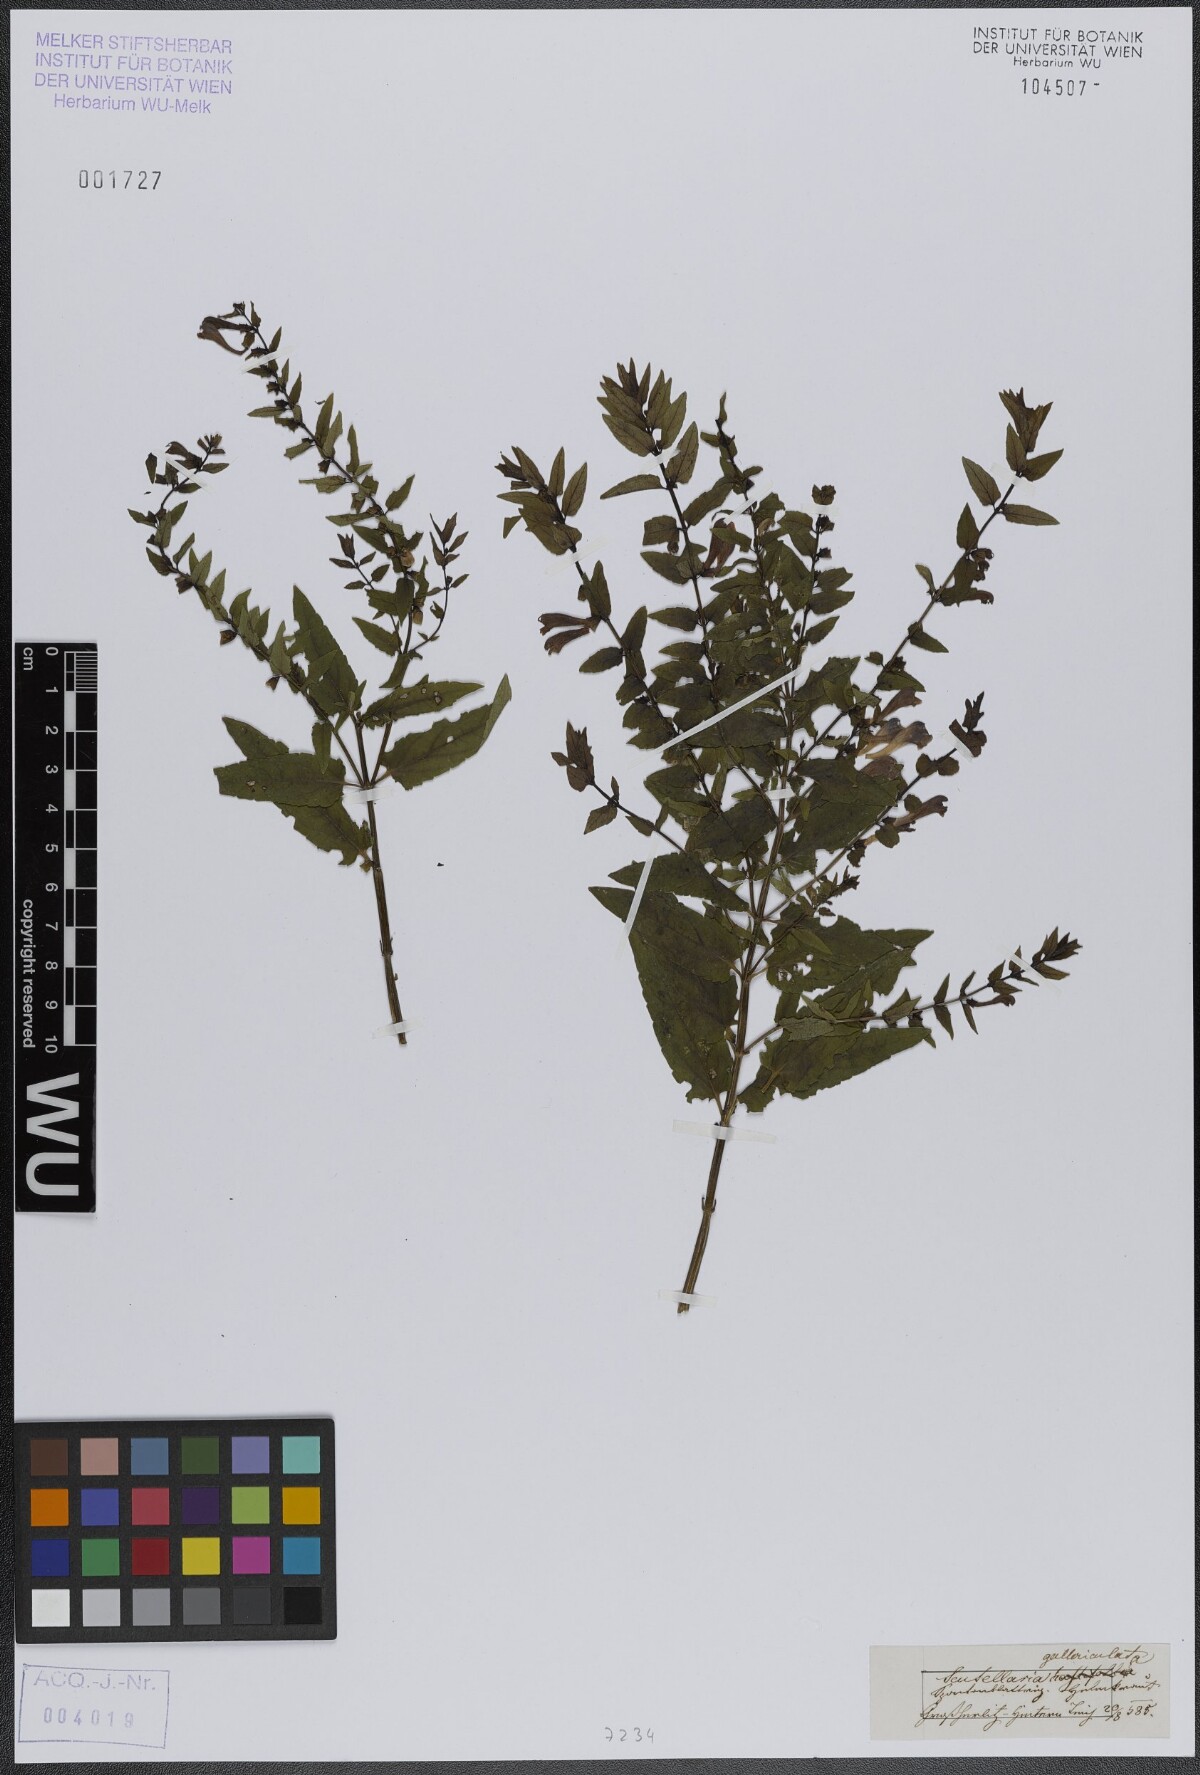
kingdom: Plantae
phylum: Tracheophyta
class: Magnoliopsida
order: Lamiales
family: Lamiaceae
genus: Scutellaria
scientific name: Scutellaria galericulata
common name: Skullcap
